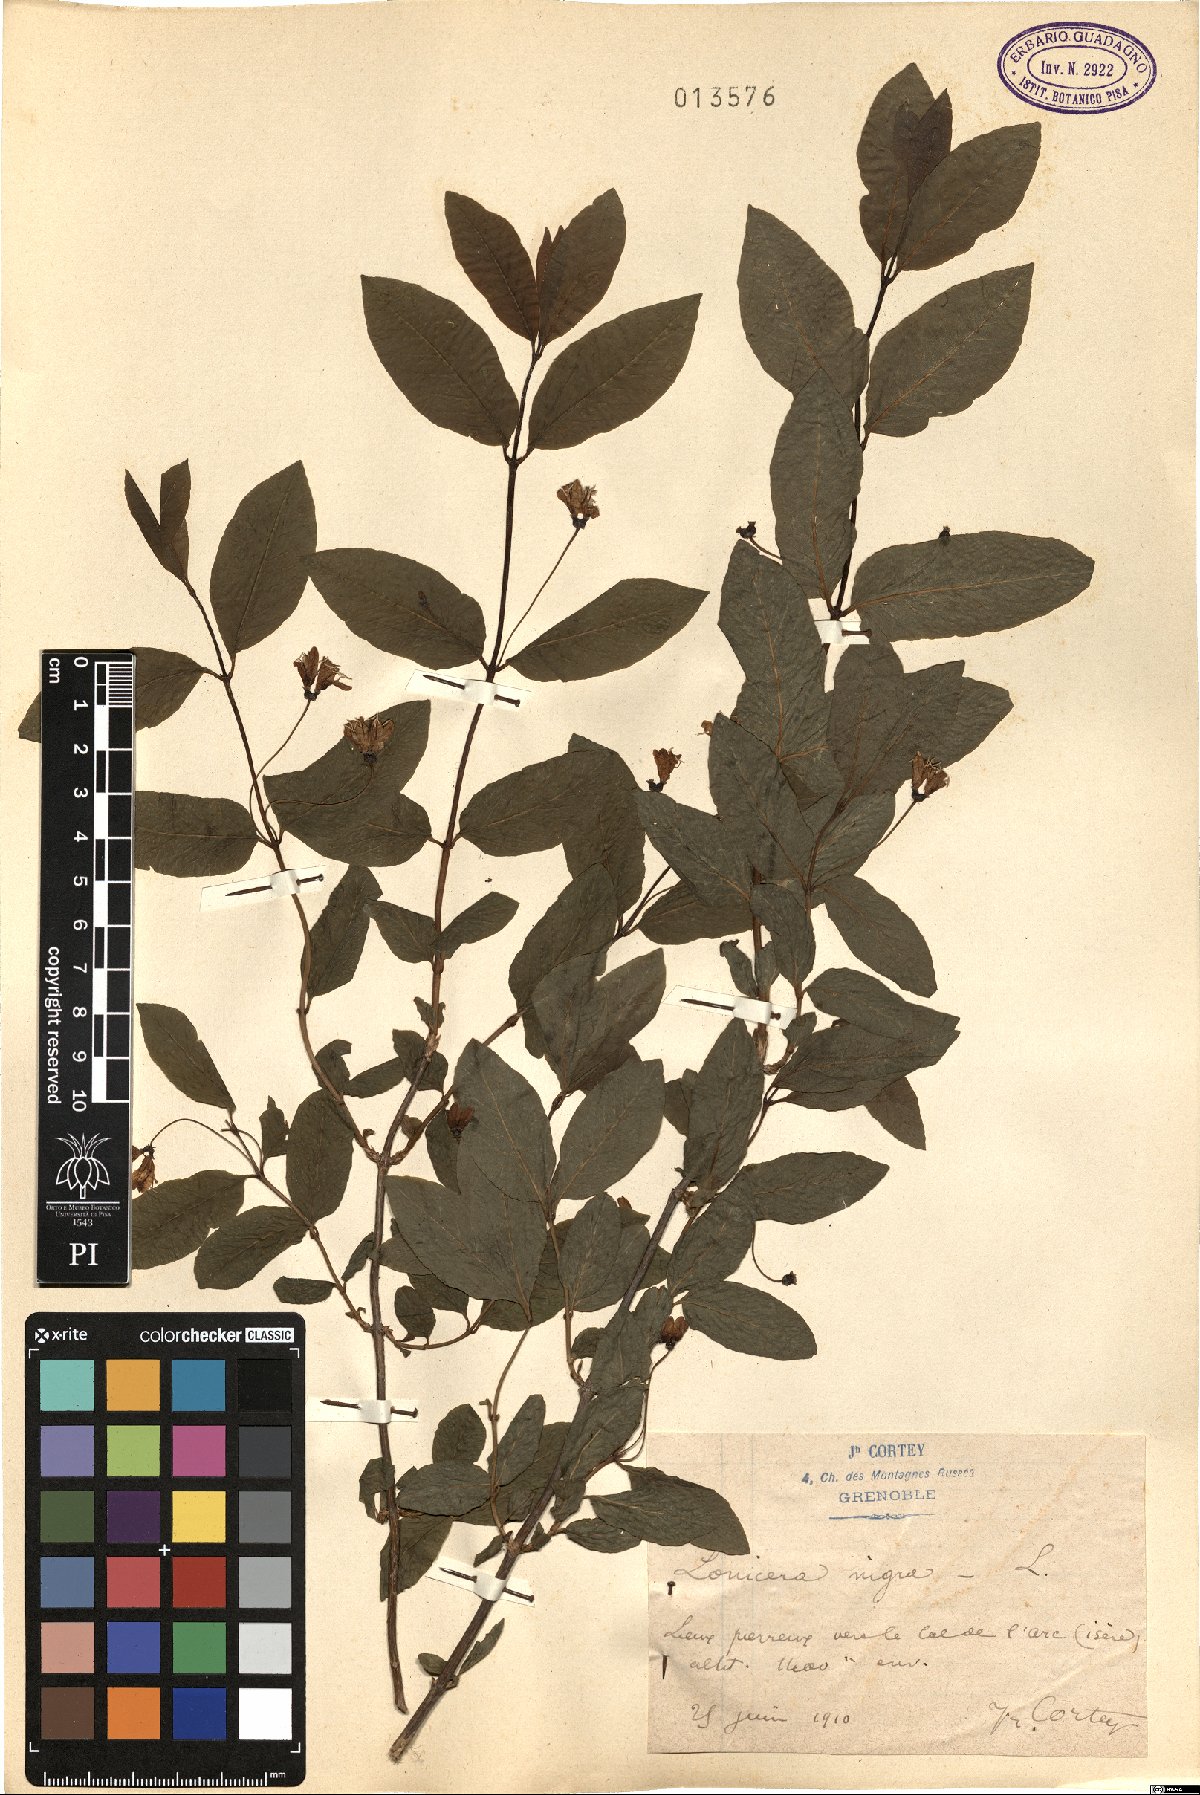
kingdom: Plantae
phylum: Tracheophyta
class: Magnoliopsida
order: Dipsacales
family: Caprifoliaceae
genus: Lonicera
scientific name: Lonicera nigra
